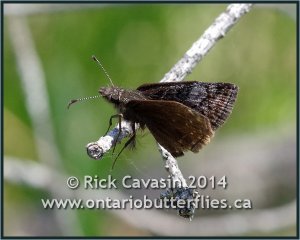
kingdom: Animalia
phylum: Arthropoda
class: Insecta
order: Lepidoptera
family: Hesperiidae
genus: Erynnis
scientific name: Erynnis icelus
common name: Dreamy Duskywing
